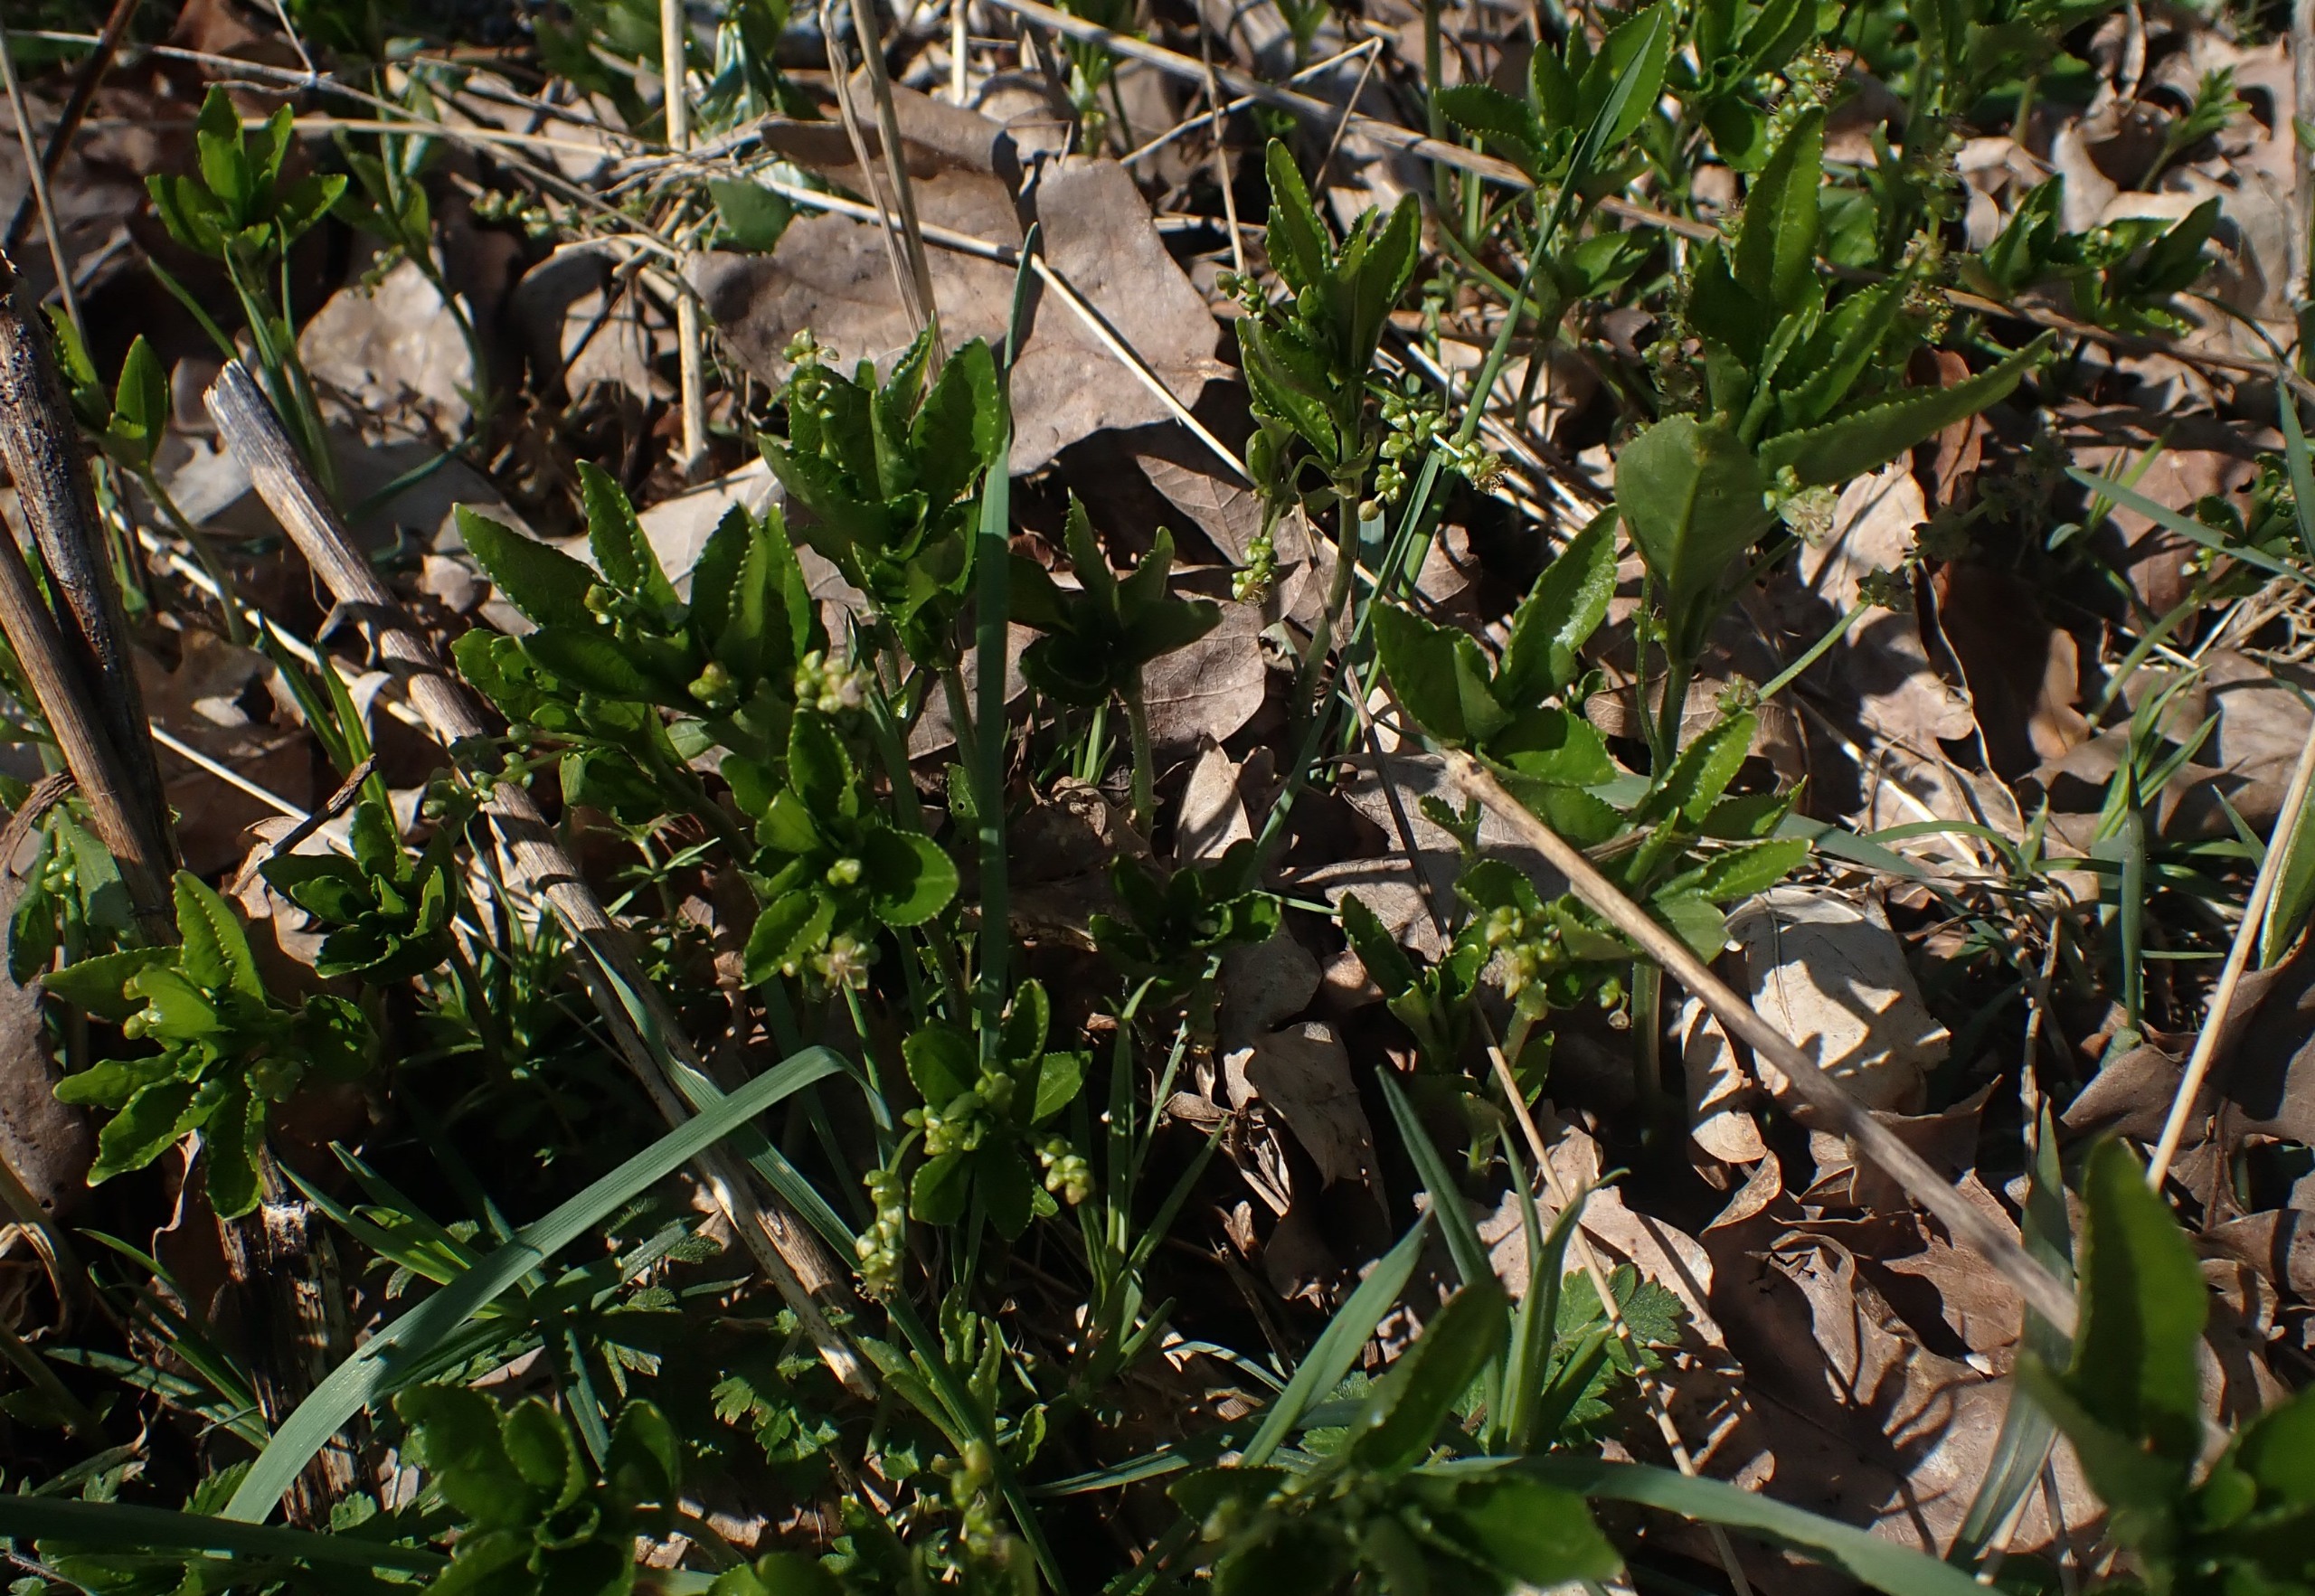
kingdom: Plantae
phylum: Tracheophyta
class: Magnoliopsida
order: Malpighiales
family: Euphorbiaceae
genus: Mercurialis
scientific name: Mercurialis perennis
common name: Almindelig bingelurt
